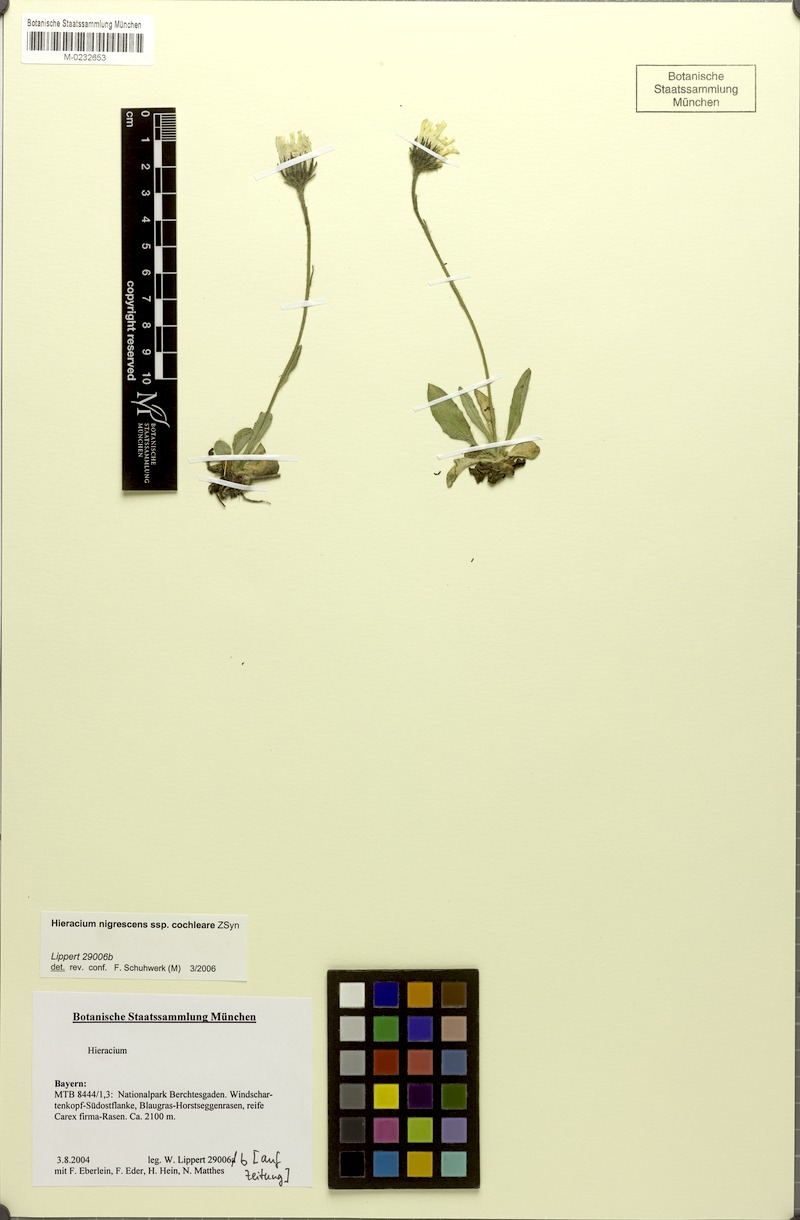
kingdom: Plantae
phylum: Tracheophyta
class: Magnoliopsida
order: Asterales
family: Asteraceae
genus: Hieracium
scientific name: Hieracium nigrescens
